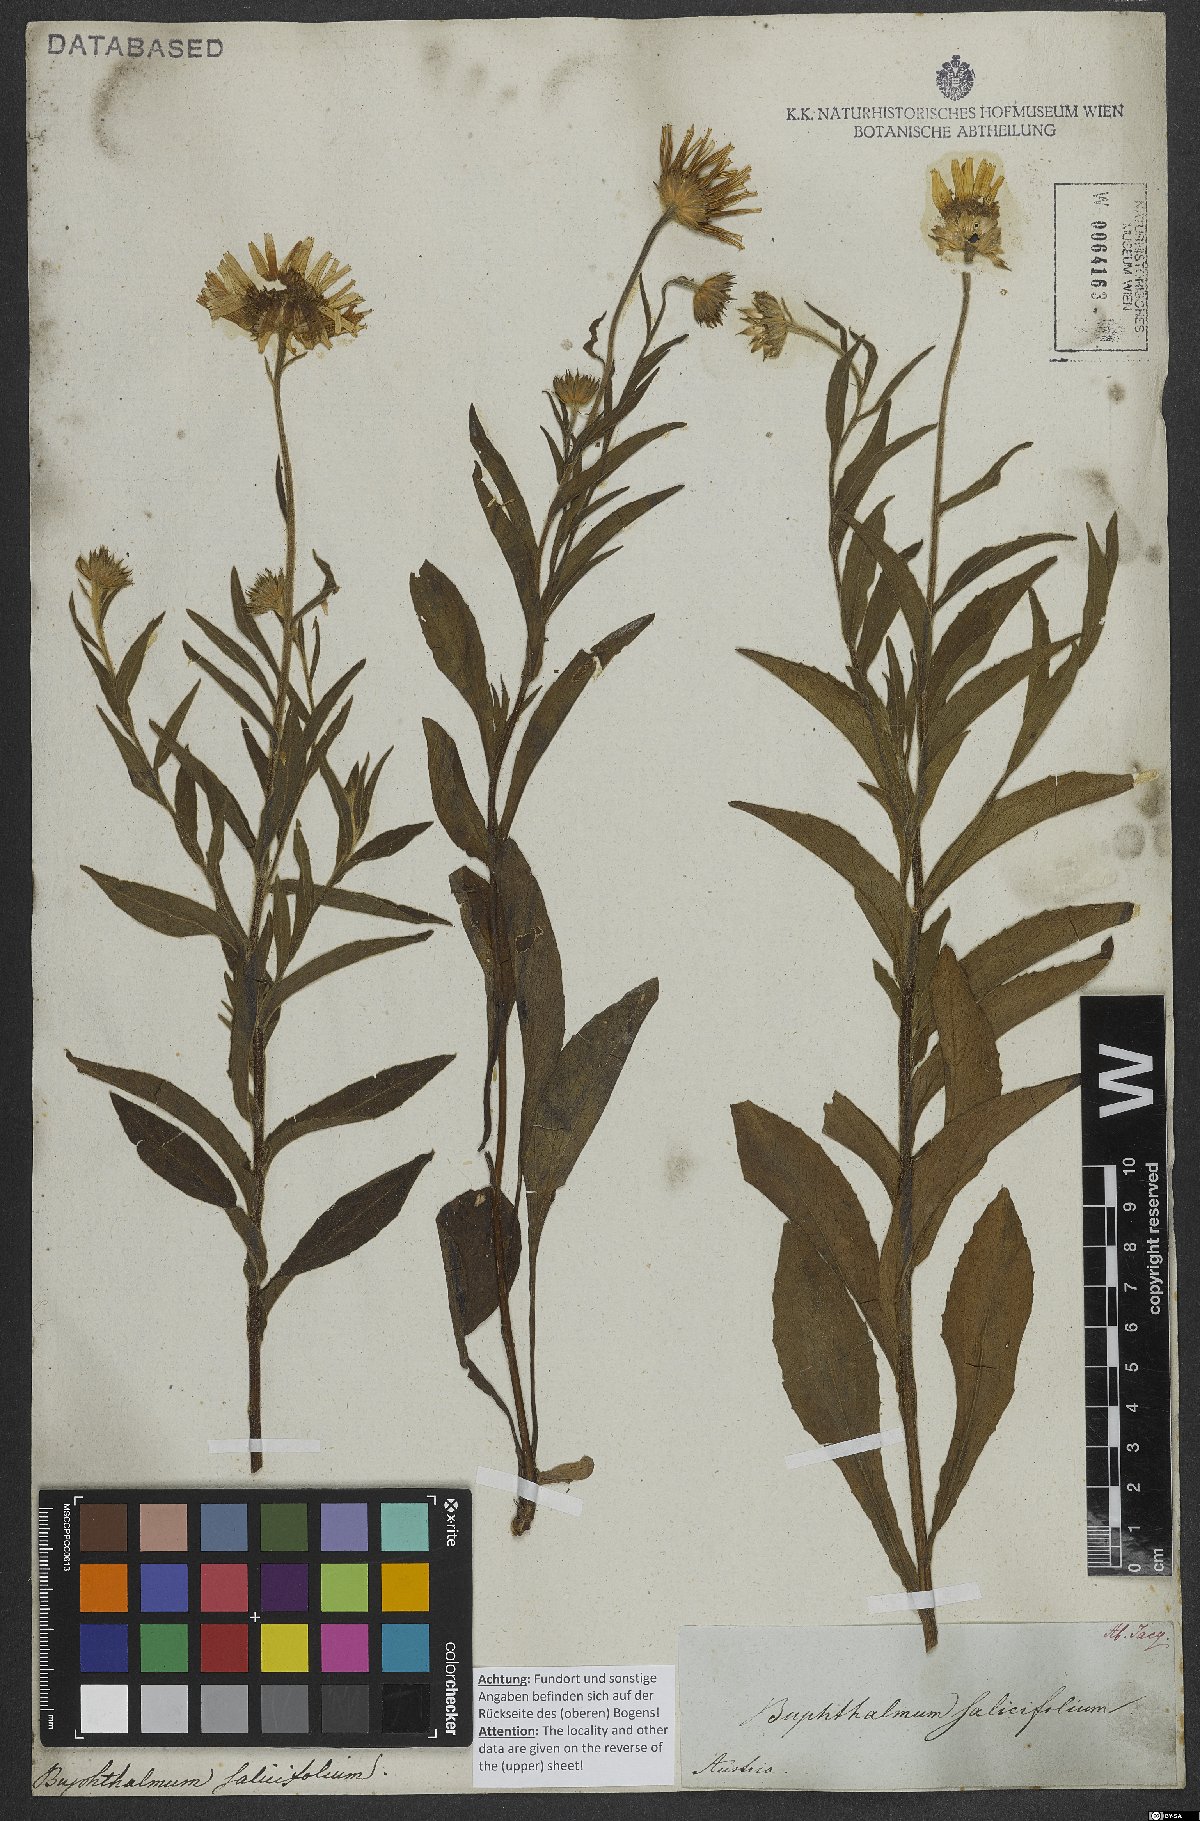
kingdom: Plantae
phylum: Tracheophyta
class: Magnoliopsida
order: Asterales
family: Asteraceae
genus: Buphthalmum
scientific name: Buphthalmum salicifolium
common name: Willow-leaved yellow-oxeye
